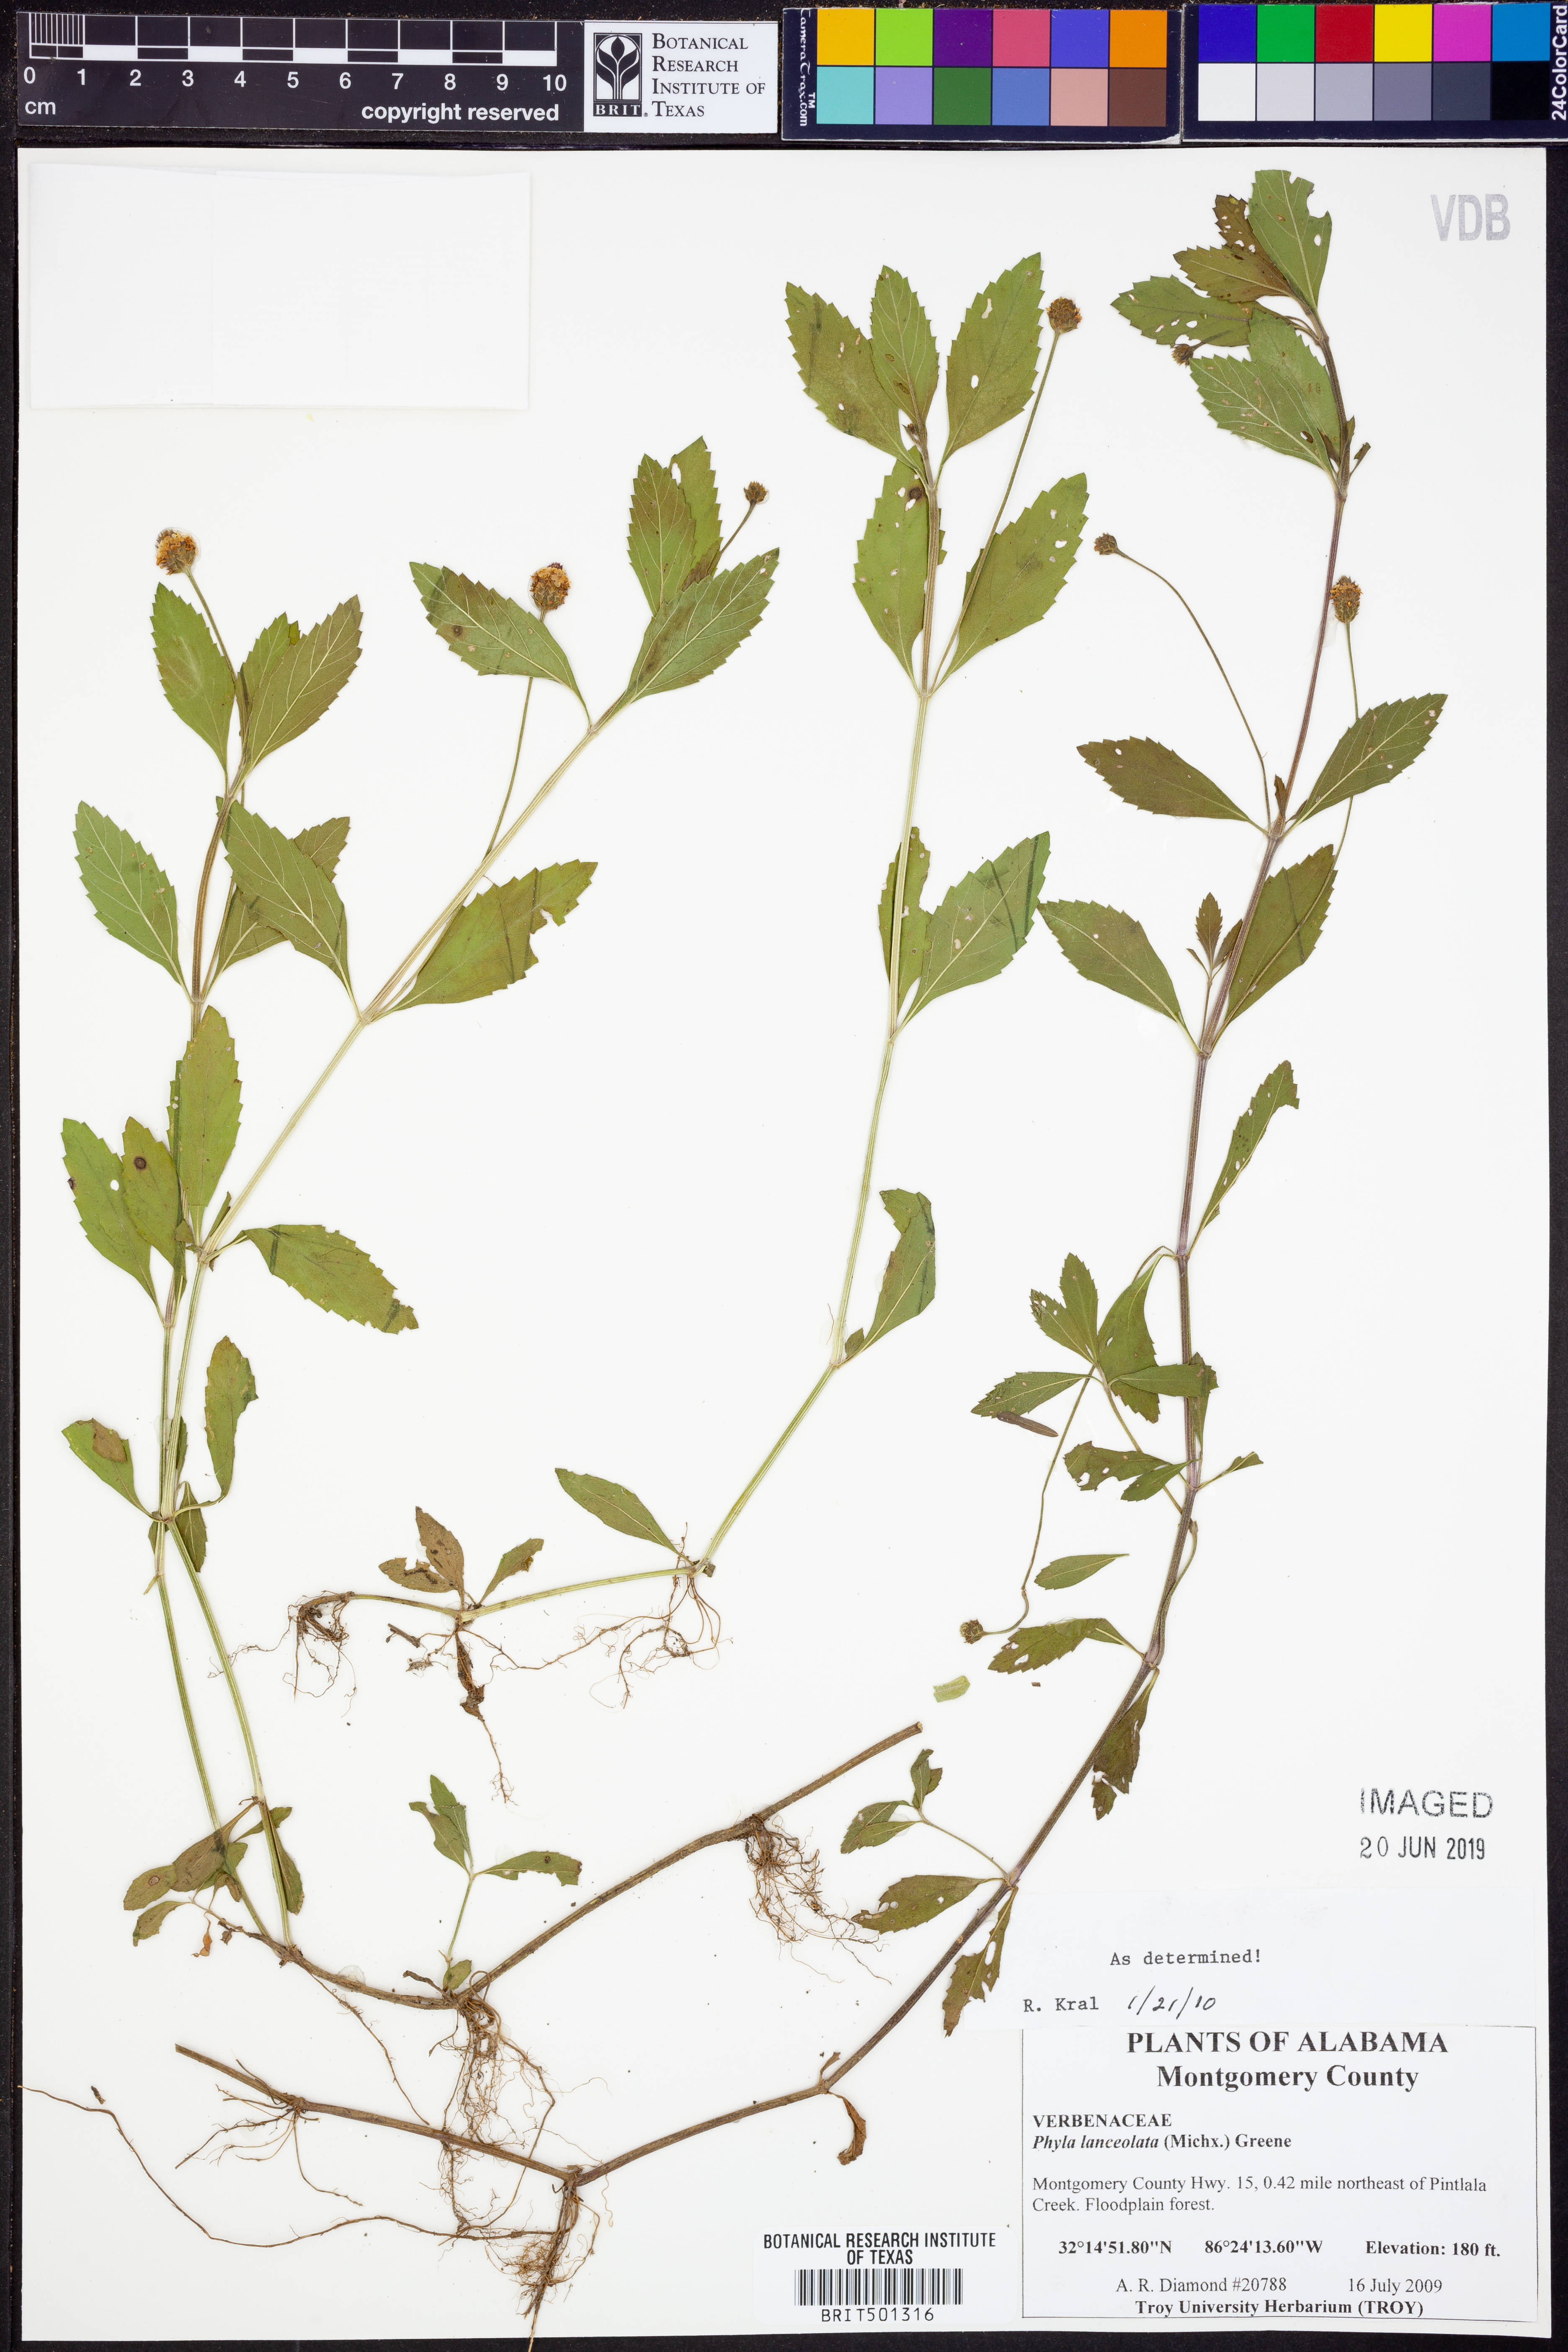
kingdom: Plantae
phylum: Tracheophyta
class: Magnoliopsida
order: Lamiales
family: Verbenaceae
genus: Phyla
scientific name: Phyla lanceolata
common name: Northern fogfruit
